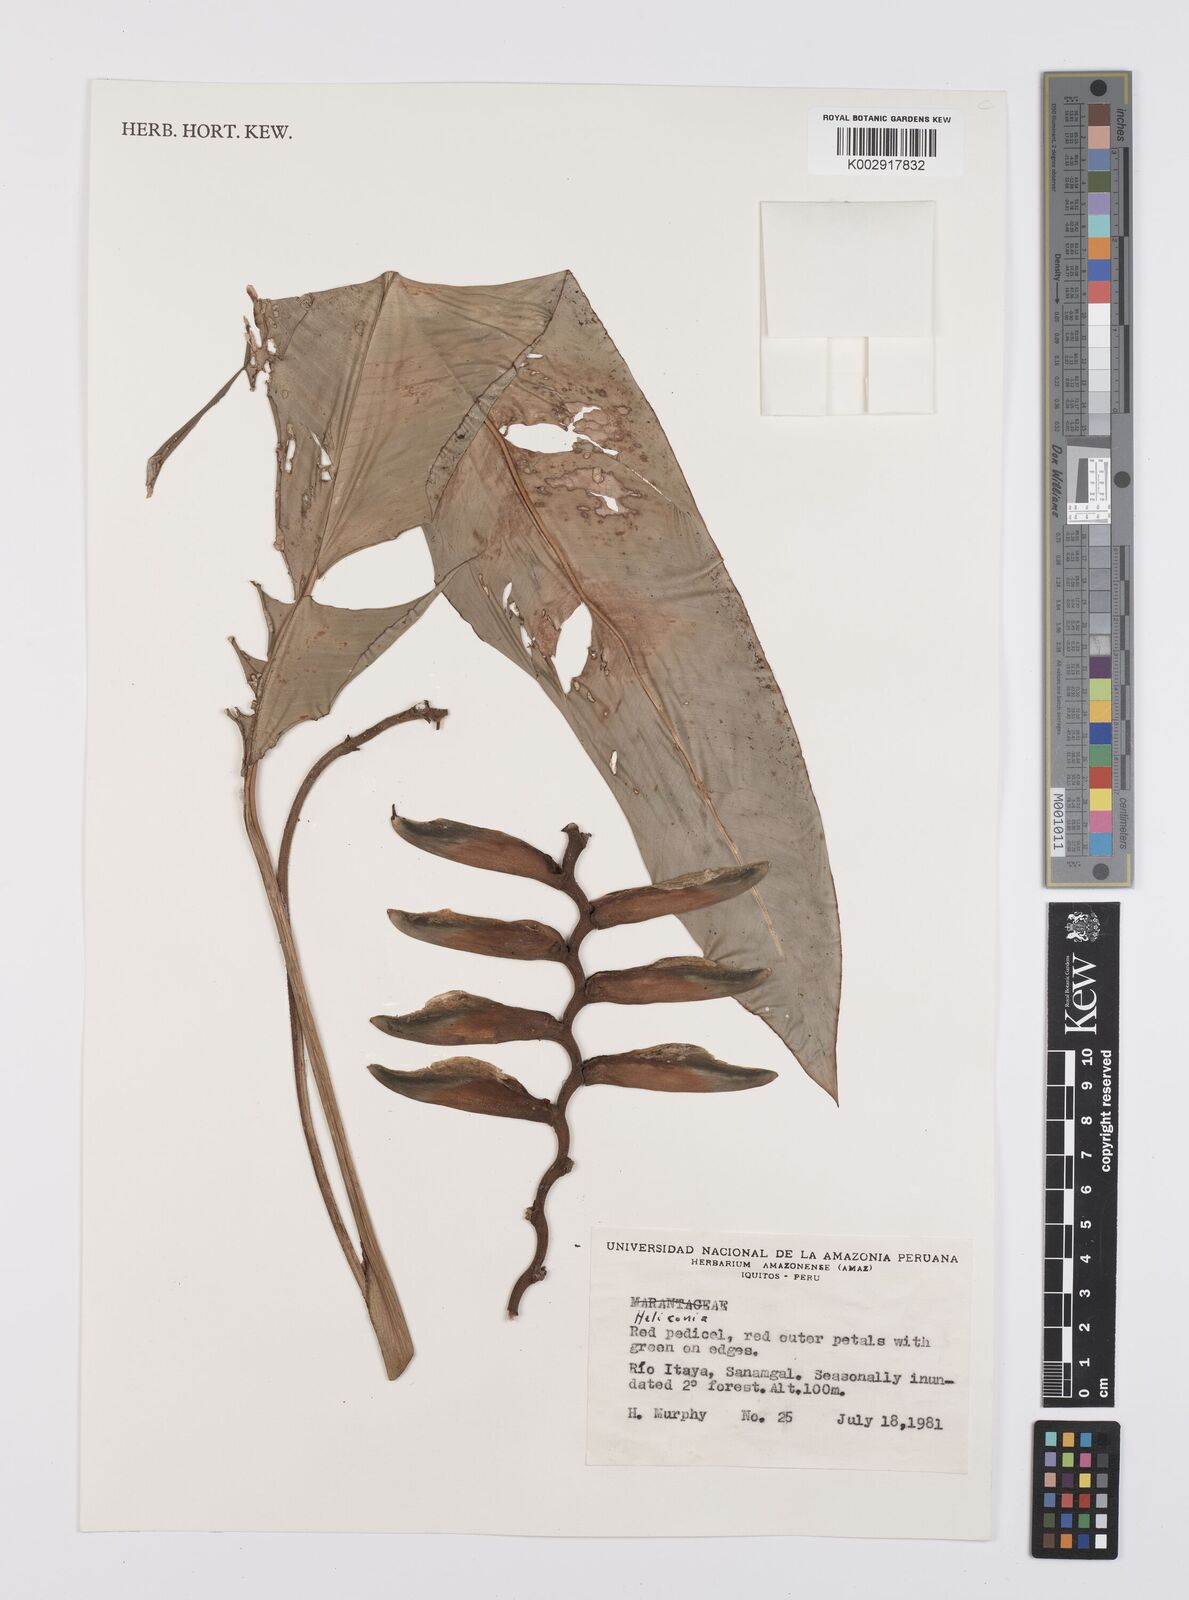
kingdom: Plantae
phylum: Tracheophyta
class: Liliopsida
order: Zingiberales
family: Heliconiaceae
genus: Heliconia
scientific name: Heliconia
